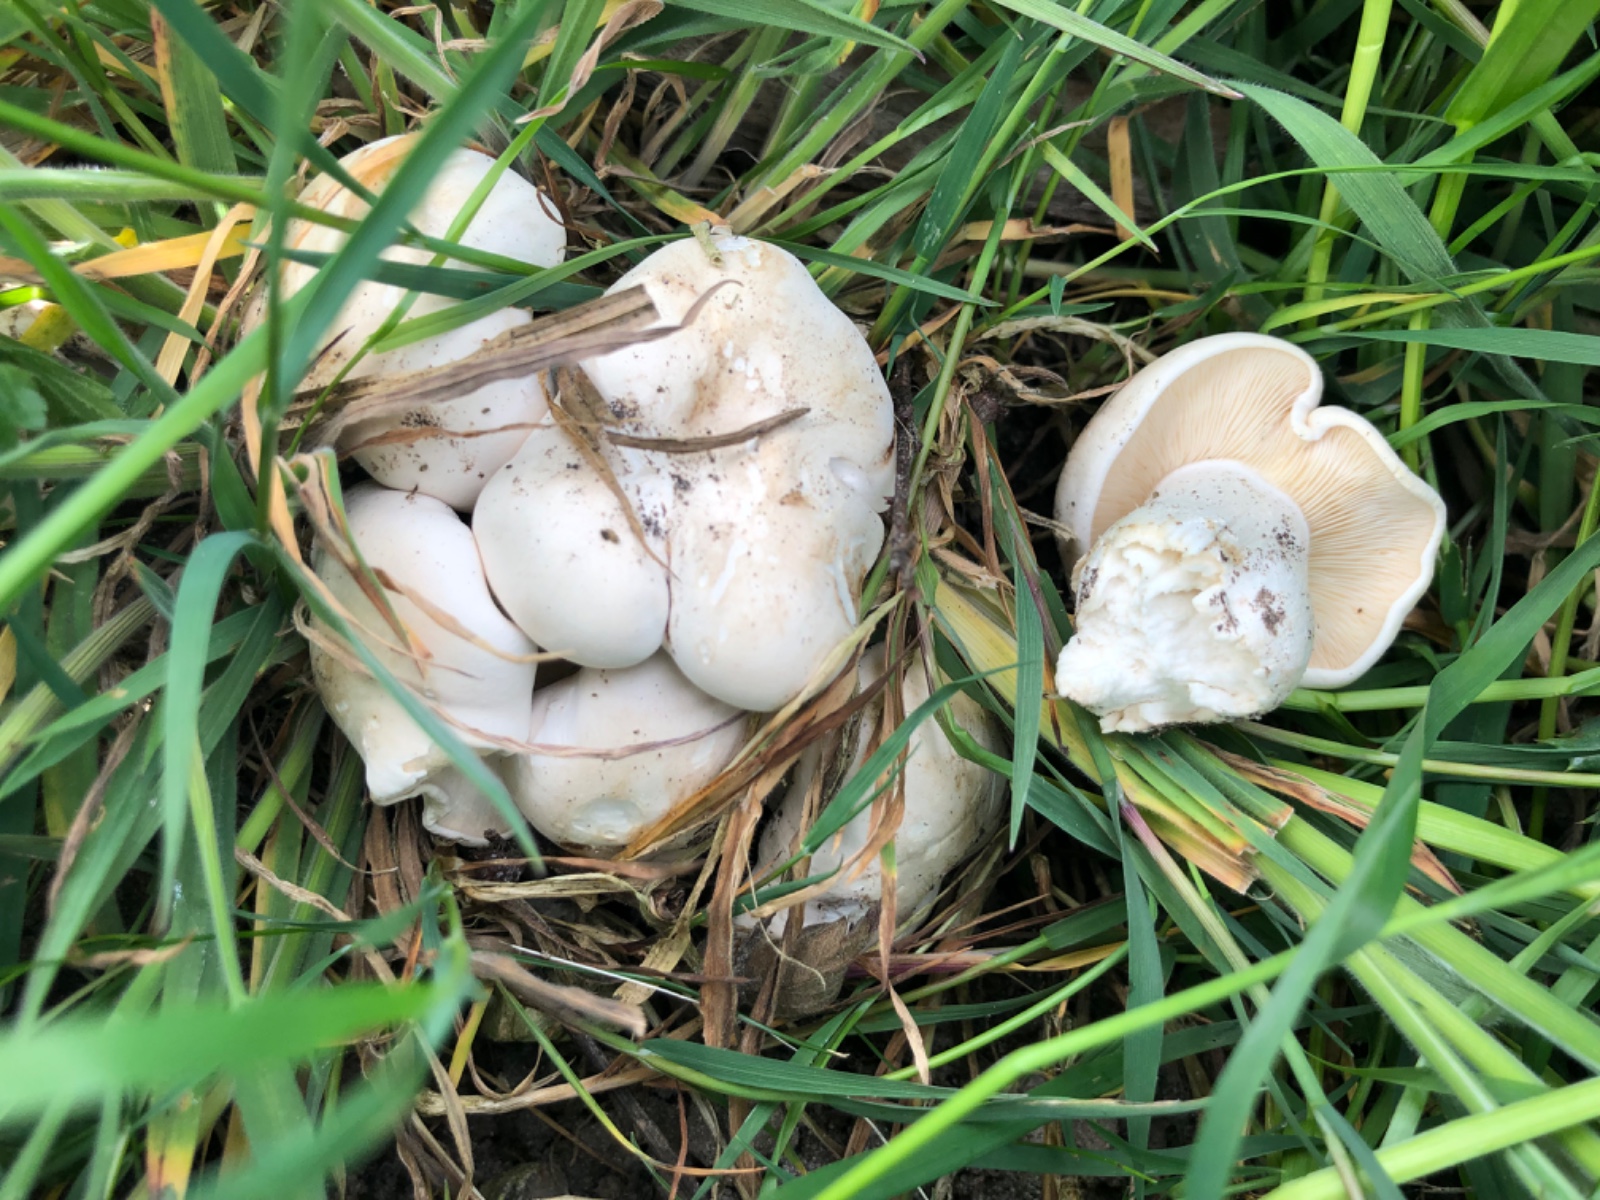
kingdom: Fungi
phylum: Basidiomycota
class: Agaricomycetes
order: Agaricales
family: Lyophyllaceae
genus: Calocybe
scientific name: Calocybe gambosa
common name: vårmusseron
